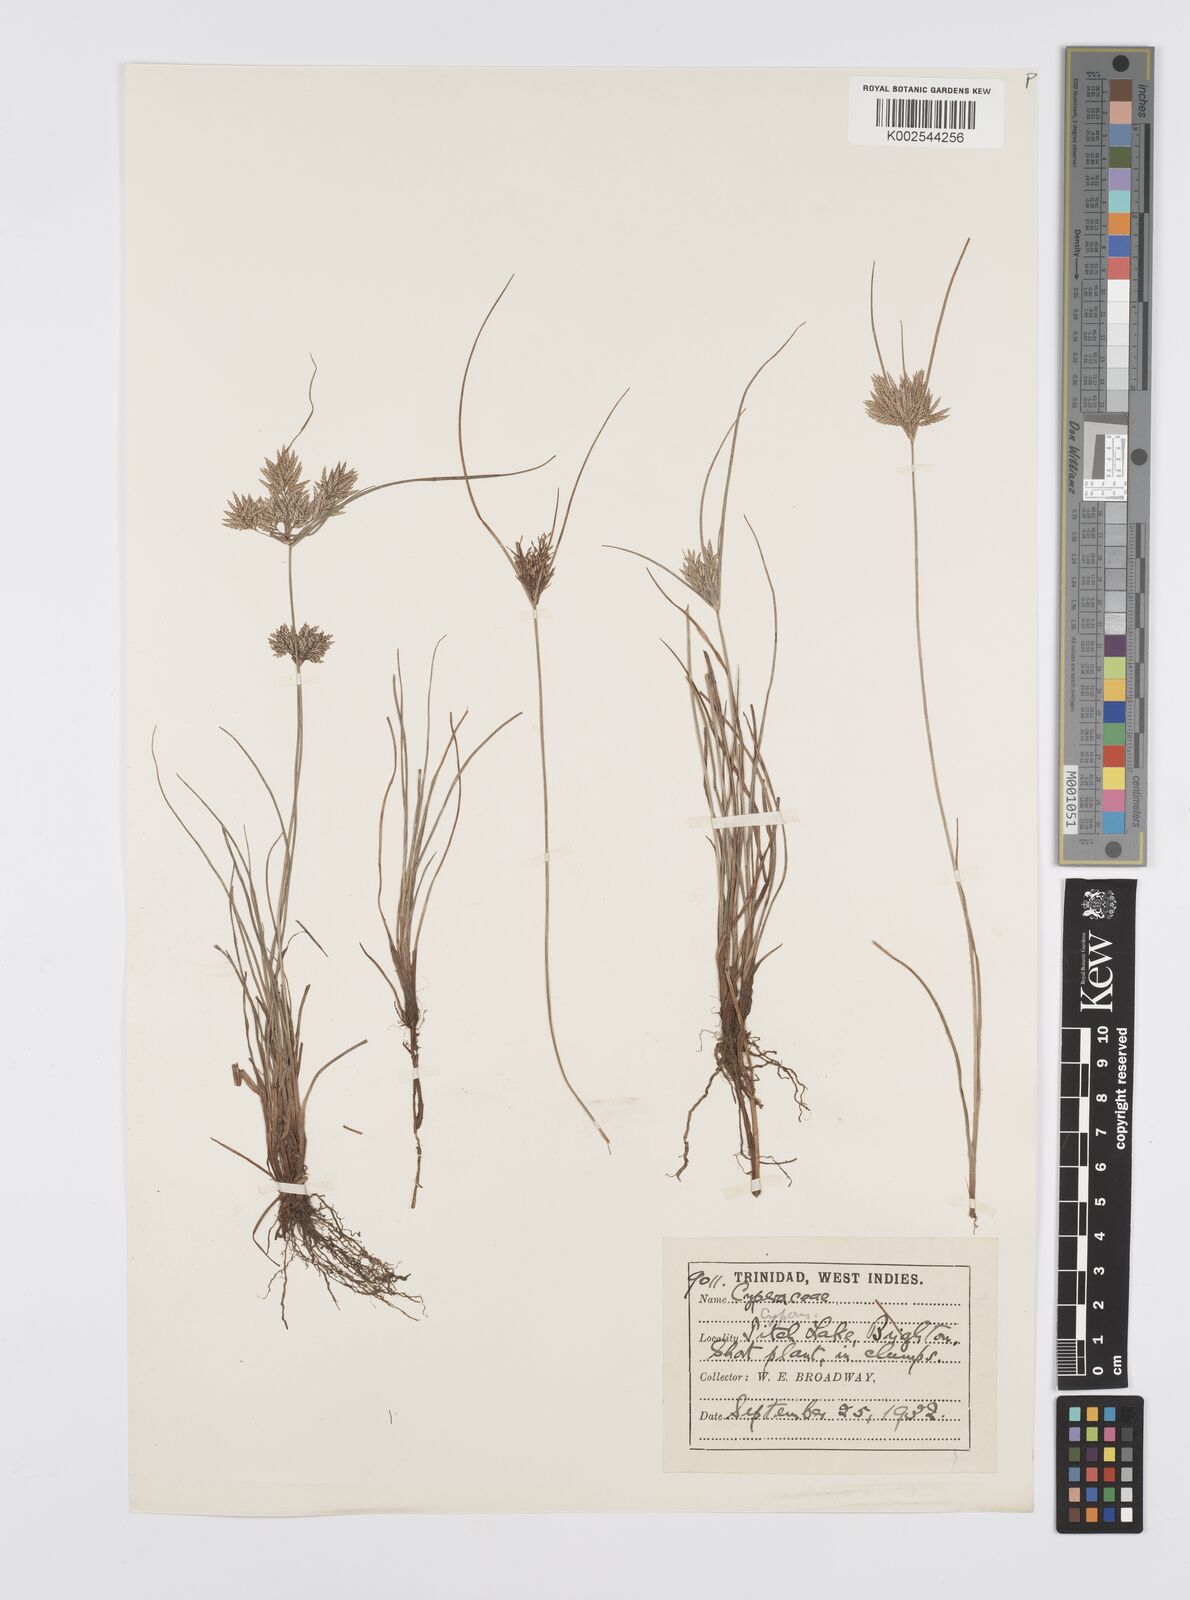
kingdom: Plantae
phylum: Tracheophyta
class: Liliopsida
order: Poales
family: Cyperaceae
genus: Cyperus
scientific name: Cyperus polystachyos
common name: Bunchy flat sedge
